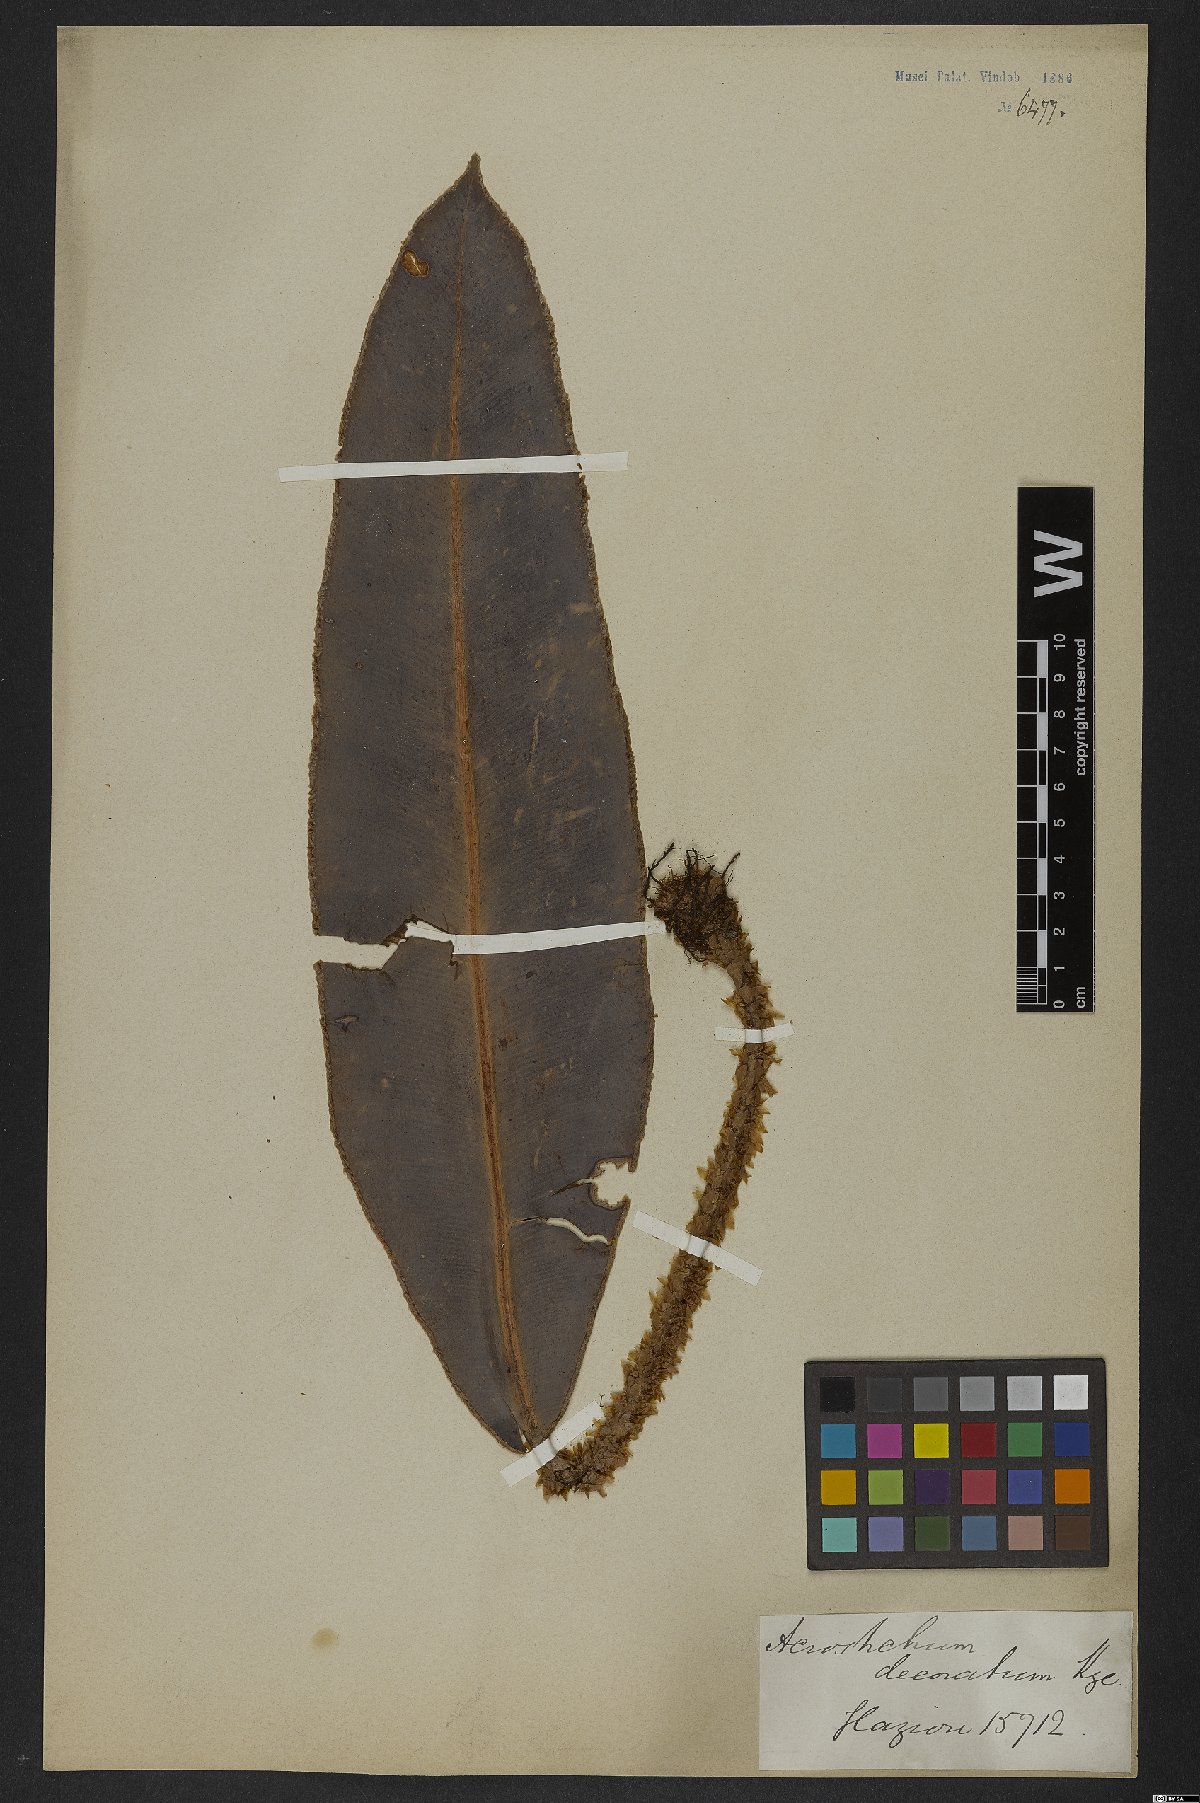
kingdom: Plantae
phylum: Tracheophyta
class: Polypodiopsida
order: Polypodiales
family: Dryopteridaceae
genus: Elaphoglossum
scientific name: Elaphoglossum decoratum
